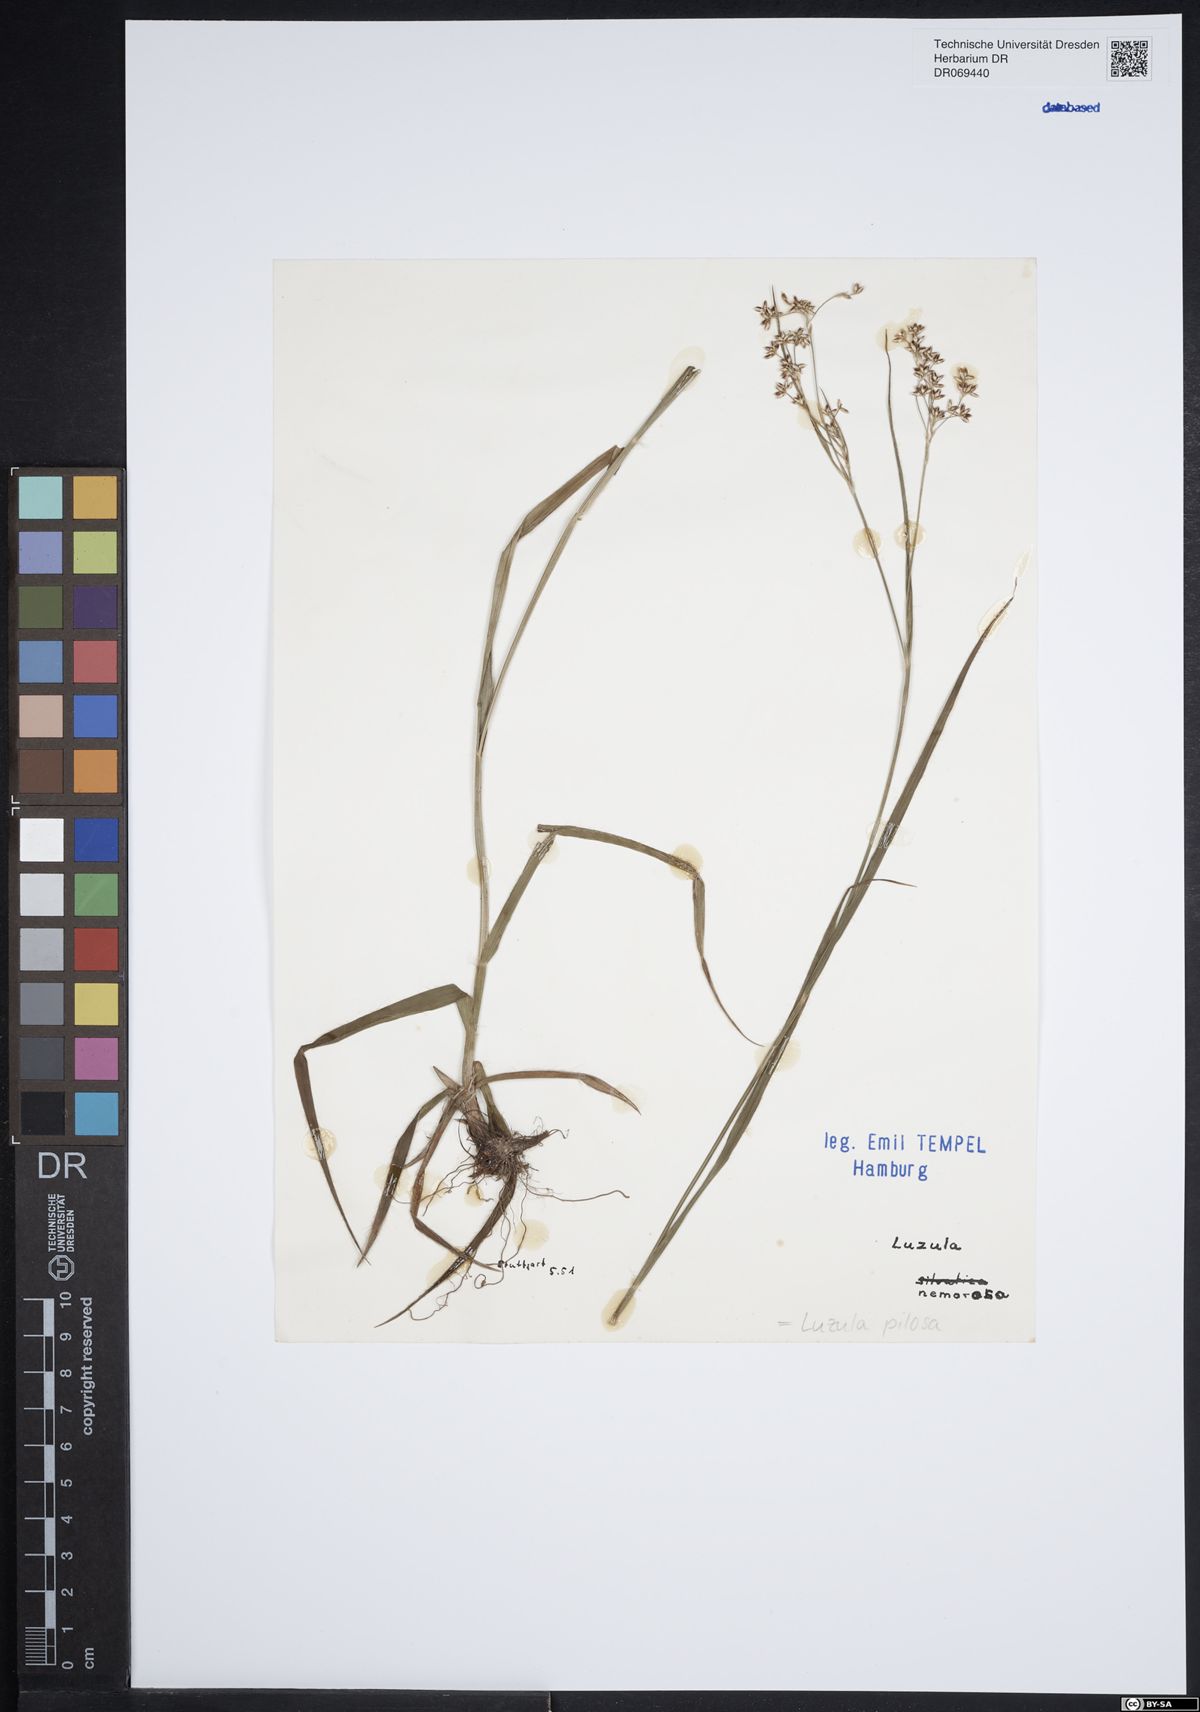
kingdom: Plantae
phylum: Tracheophyta
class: Liliopsida
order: Poales
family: Juncaceae
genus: Luzula
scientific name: Luzula pilosa
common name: Hairy wood-rush
